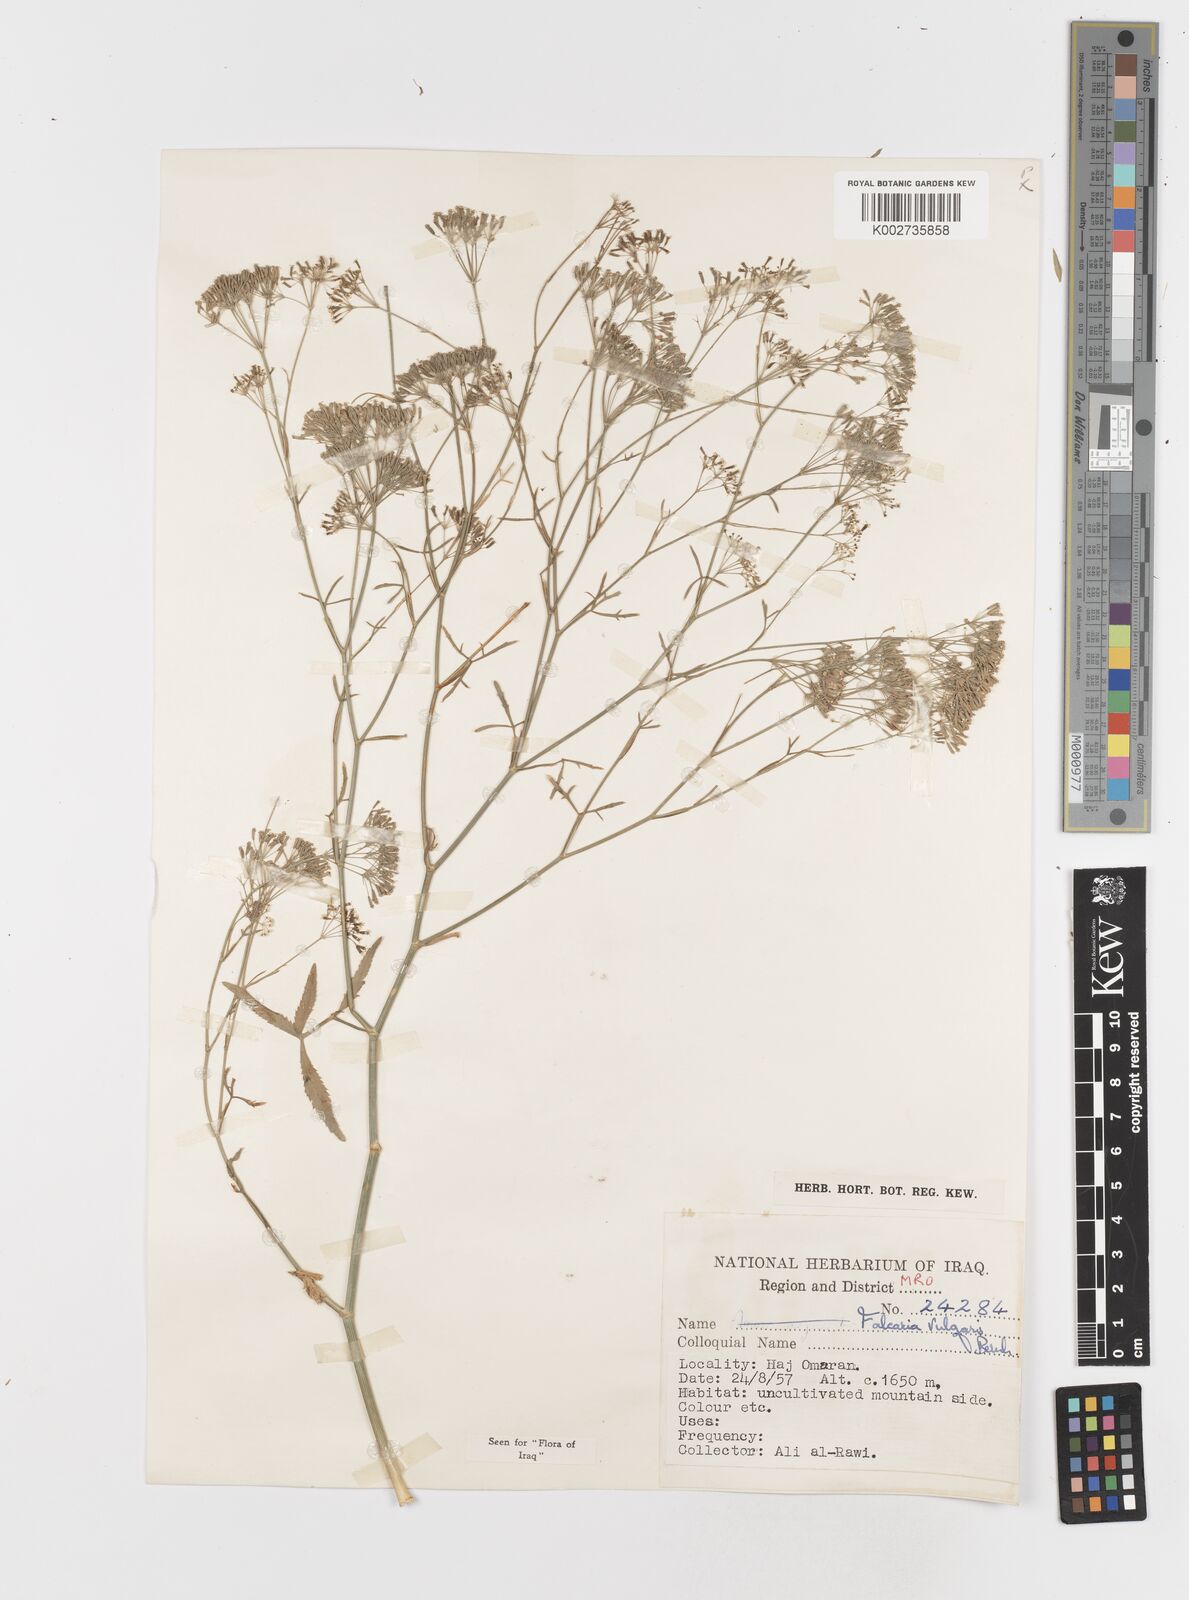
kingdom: Plantae
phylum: Tracheophyta
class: Magnoliopsida
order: Apiales
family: Apiaceae
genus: Falcaria
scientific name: Falcaria vulgaris
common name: Longleaf
